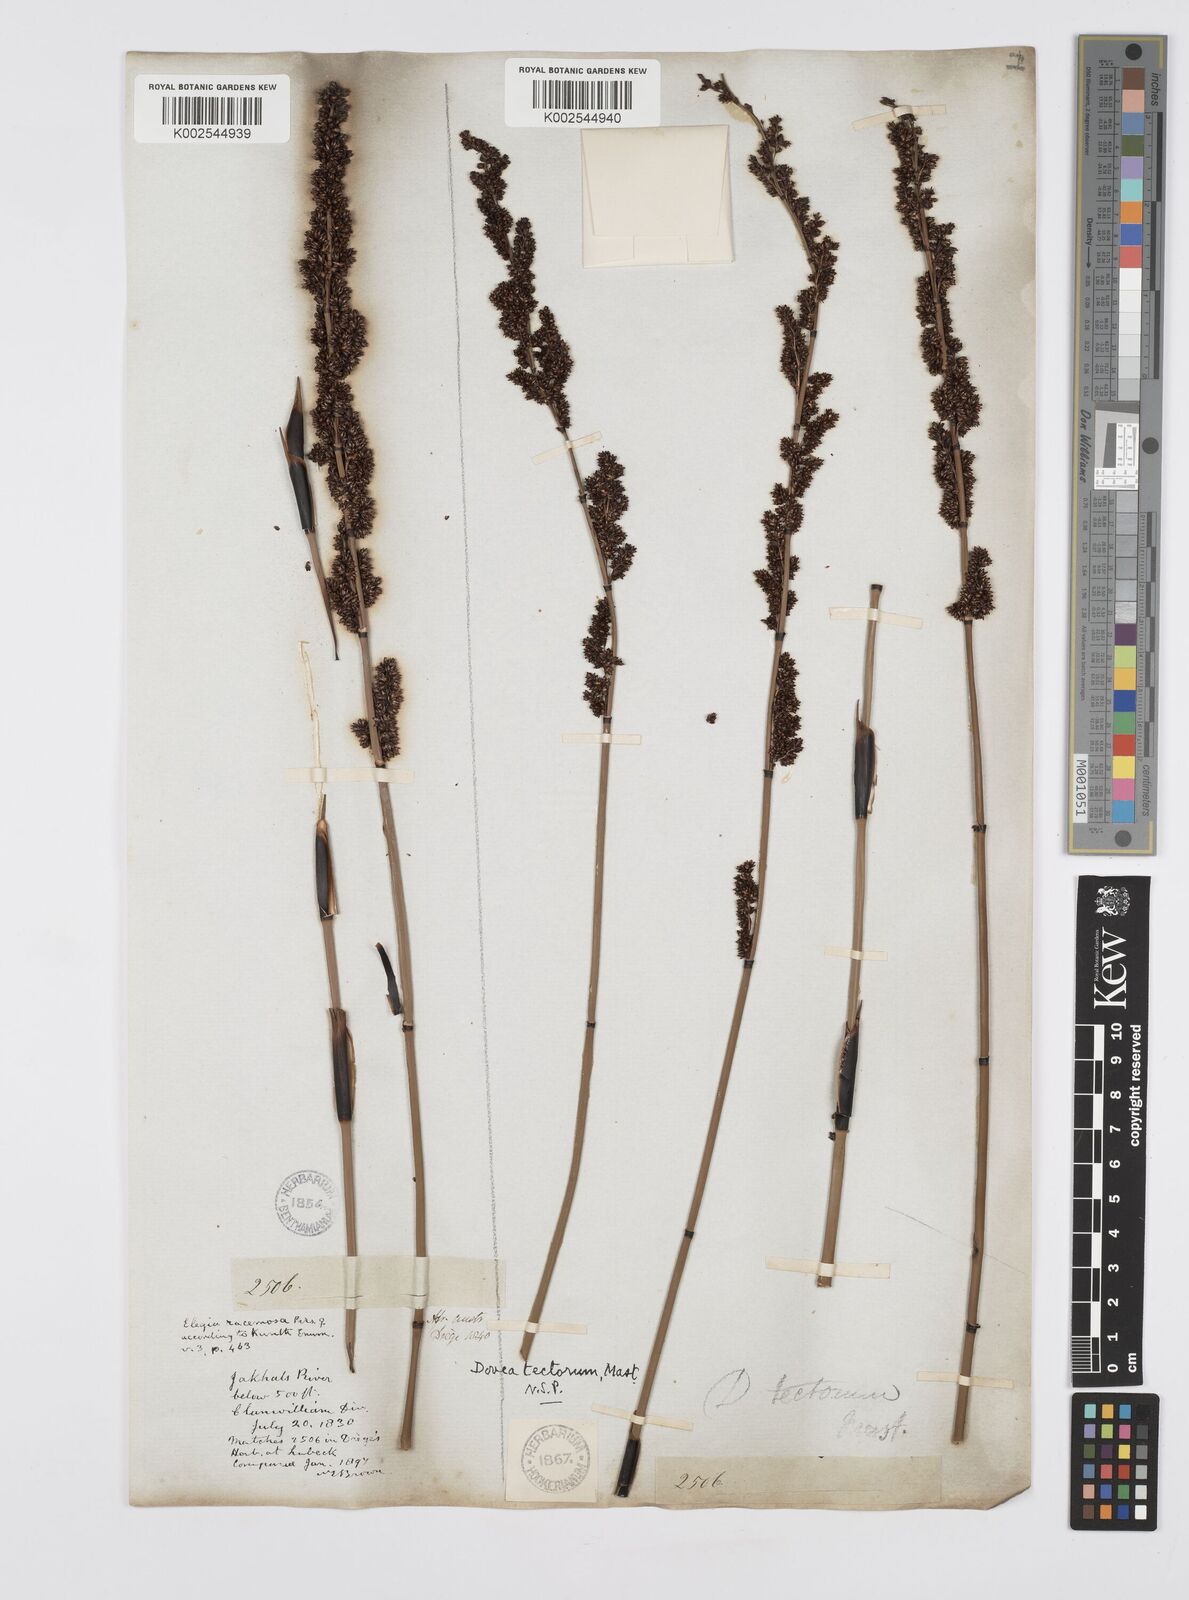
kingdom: Plantae
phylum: Tracheophyta
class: Liliopsida
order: Poales
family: Restionaceae
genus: Elegia
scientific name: Elegia tectorum
